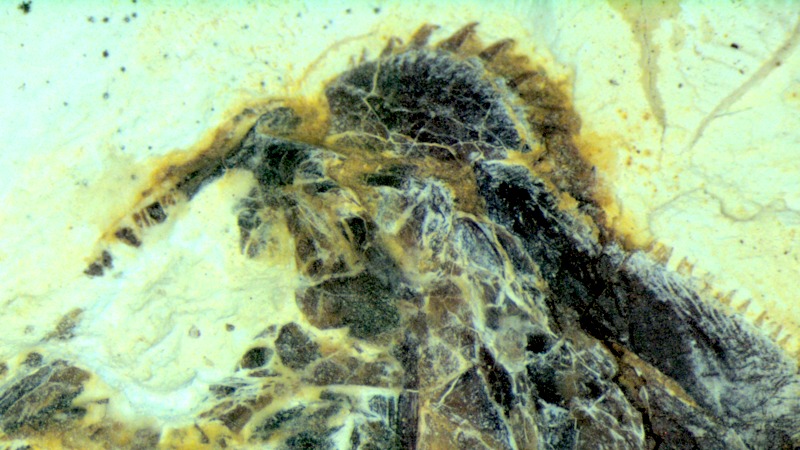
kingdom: Animalia
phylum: Chordata
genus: Thrissops
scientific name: Thrissops formosus
